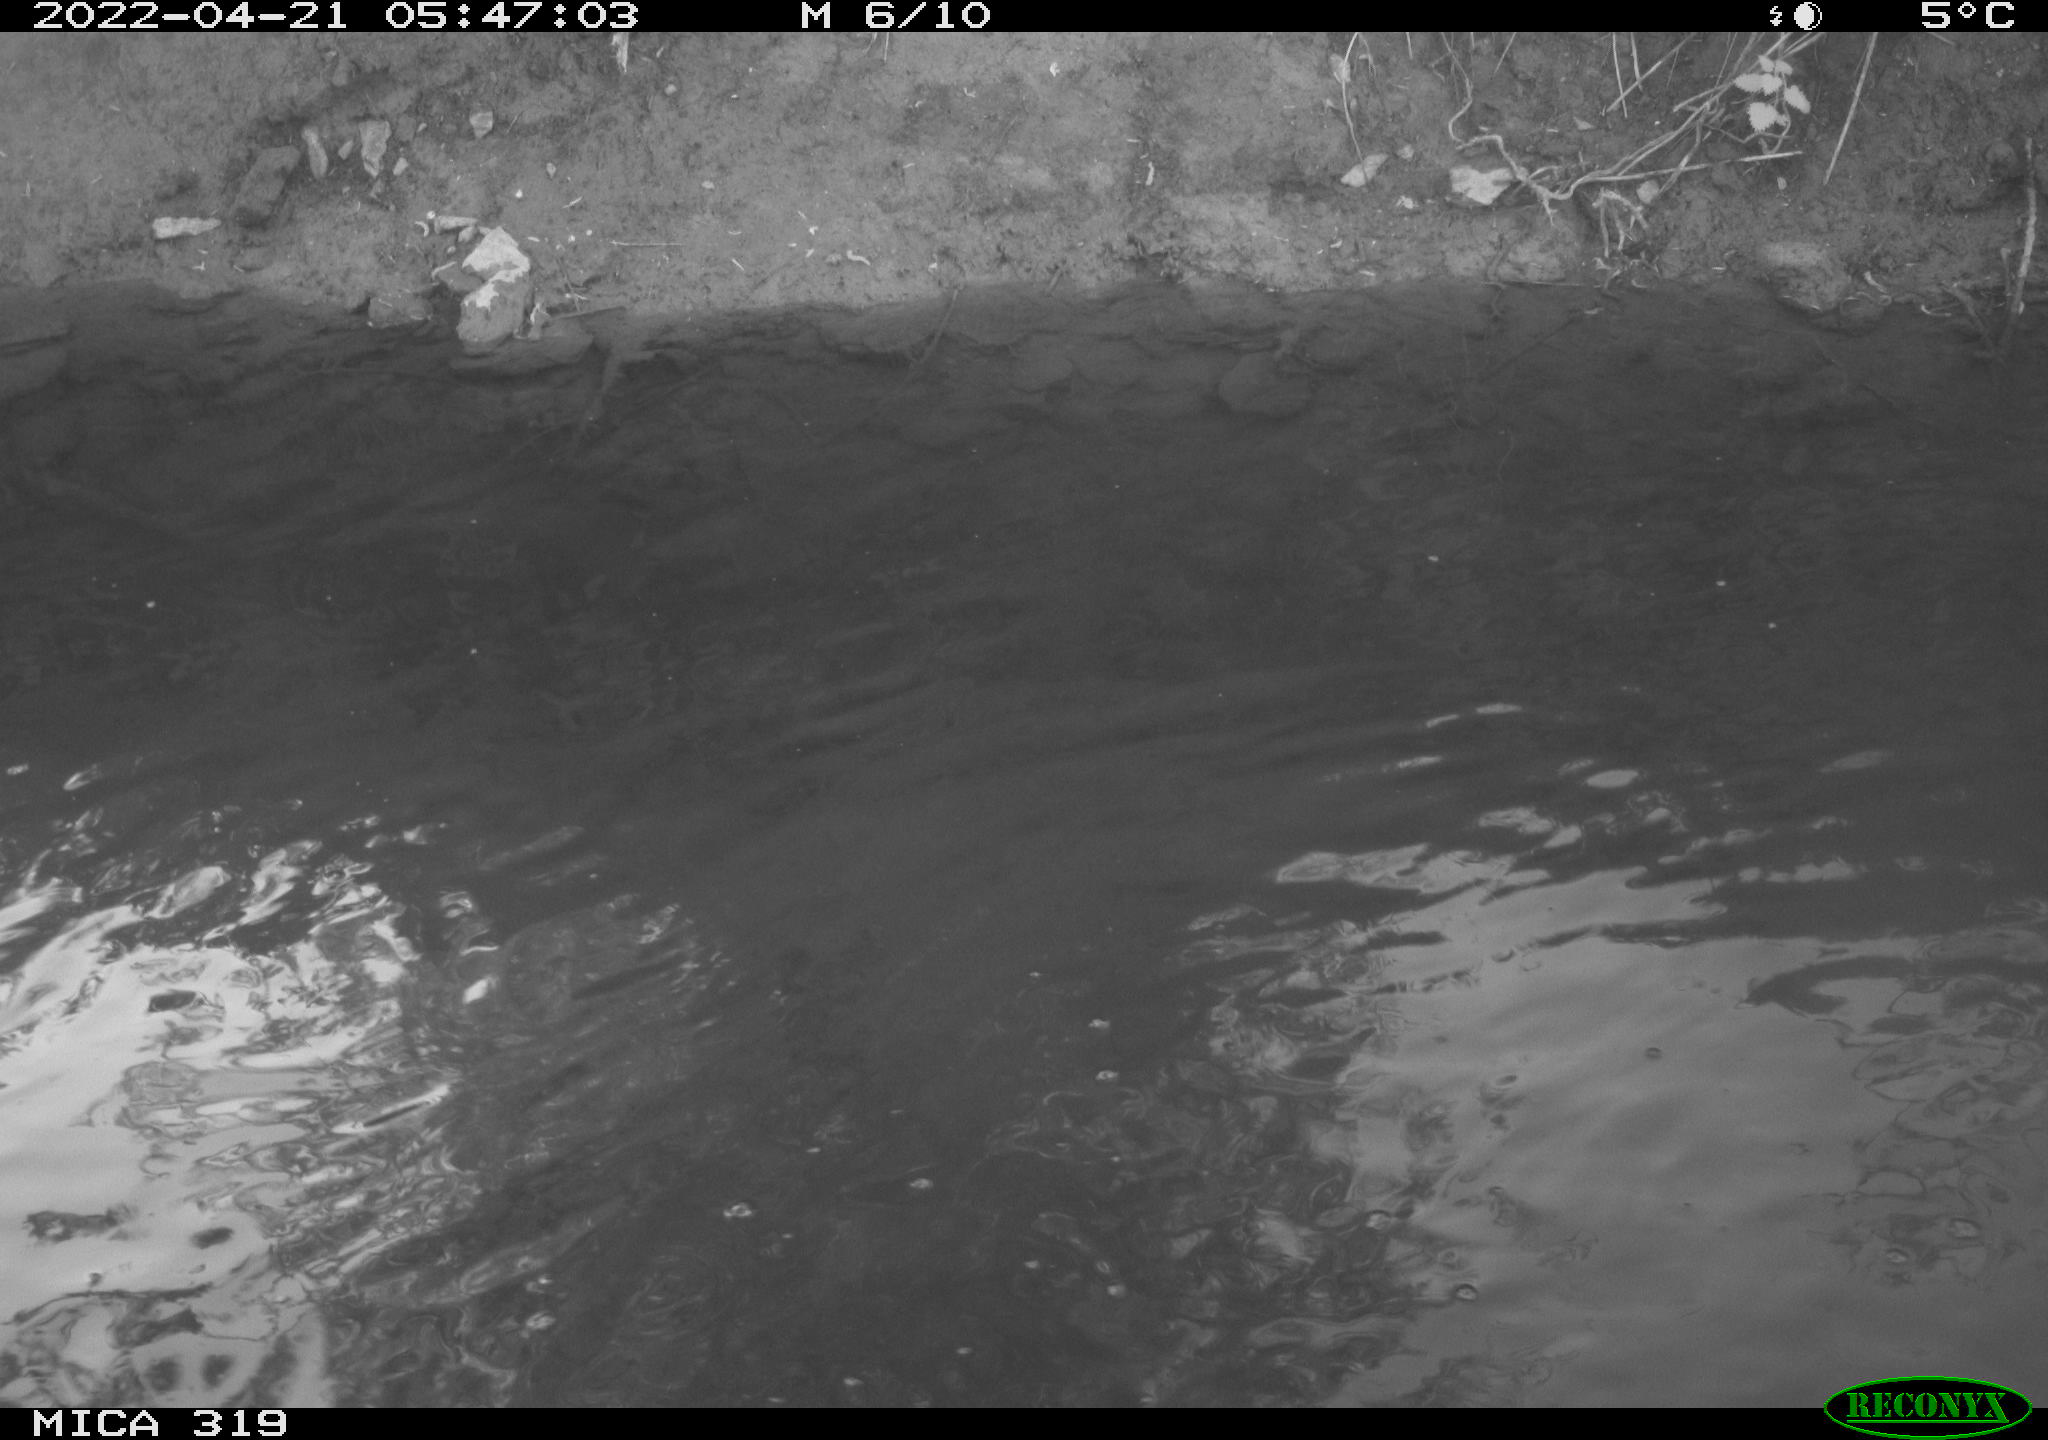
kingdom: Animalia
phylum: Chordata
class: Aves
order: Gruiformes
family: Rallidae
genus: Gallinula
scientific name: Gallinula chloropus
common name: Common moorhen
